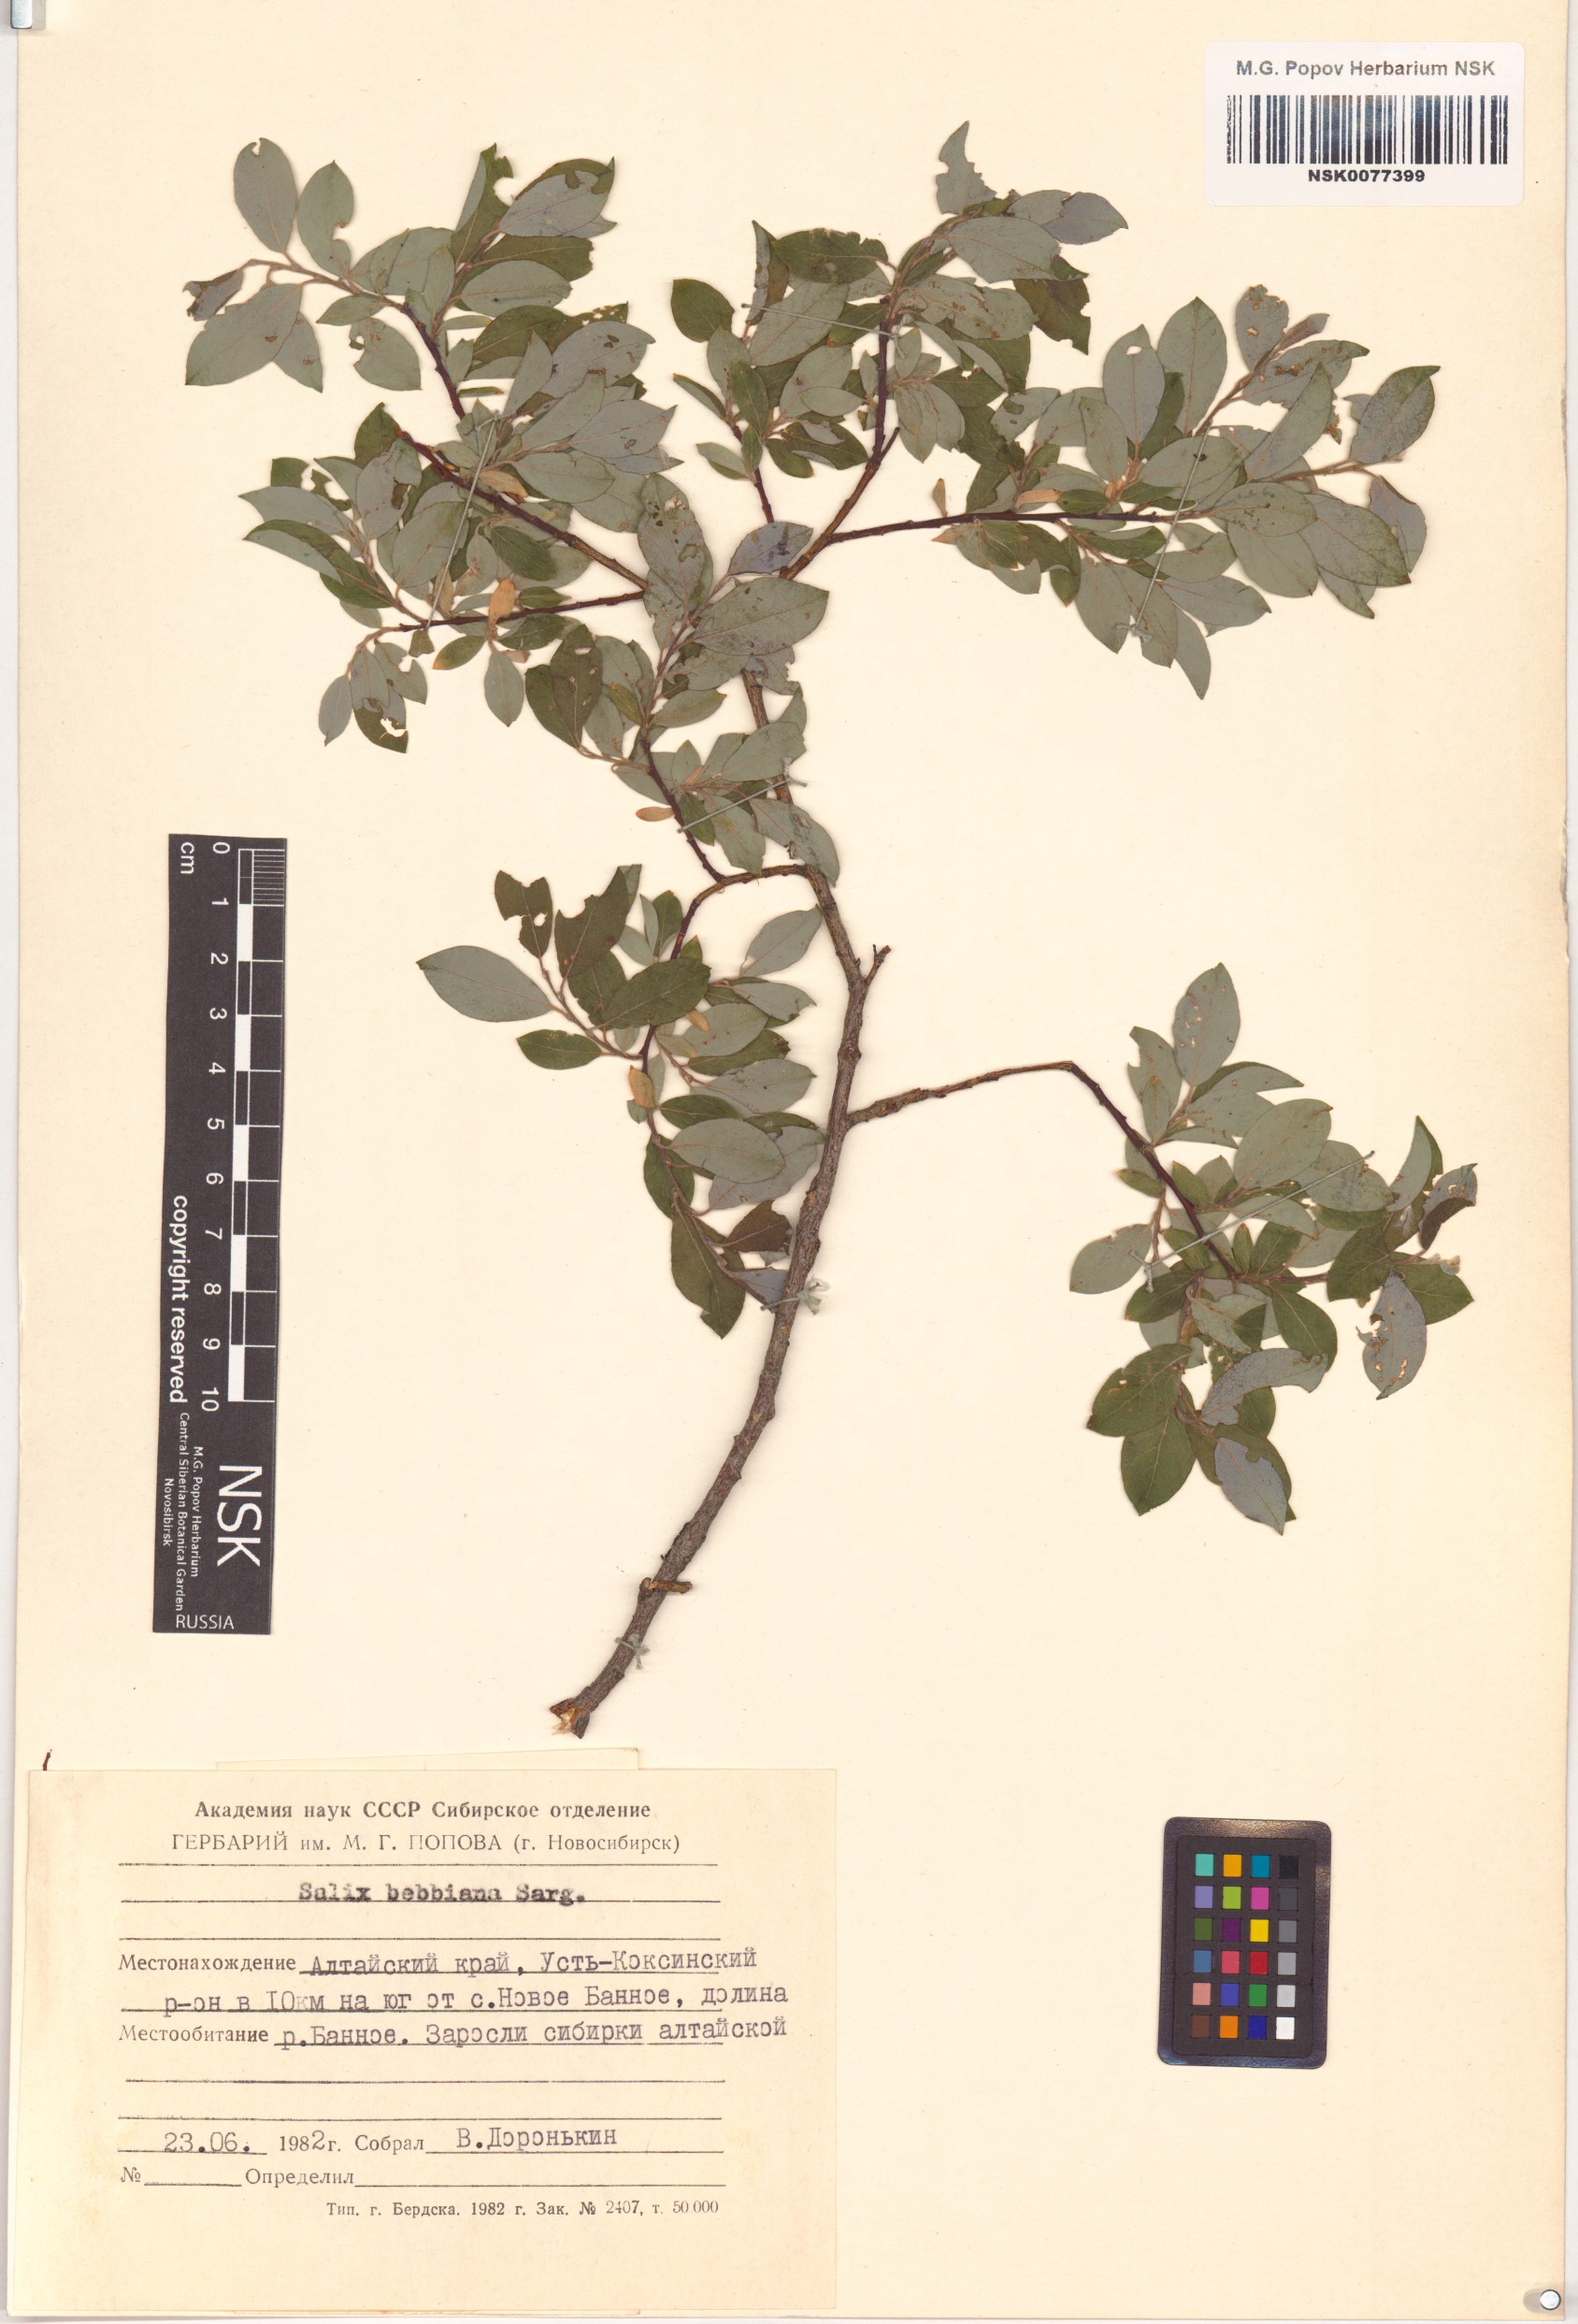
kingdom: Plantae
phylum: Tracheophyta
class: Magnoliopsida
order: Malpighiales
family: Salicaceae
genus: Salix
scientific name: Salix bebbiana
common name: Bebb's willow
